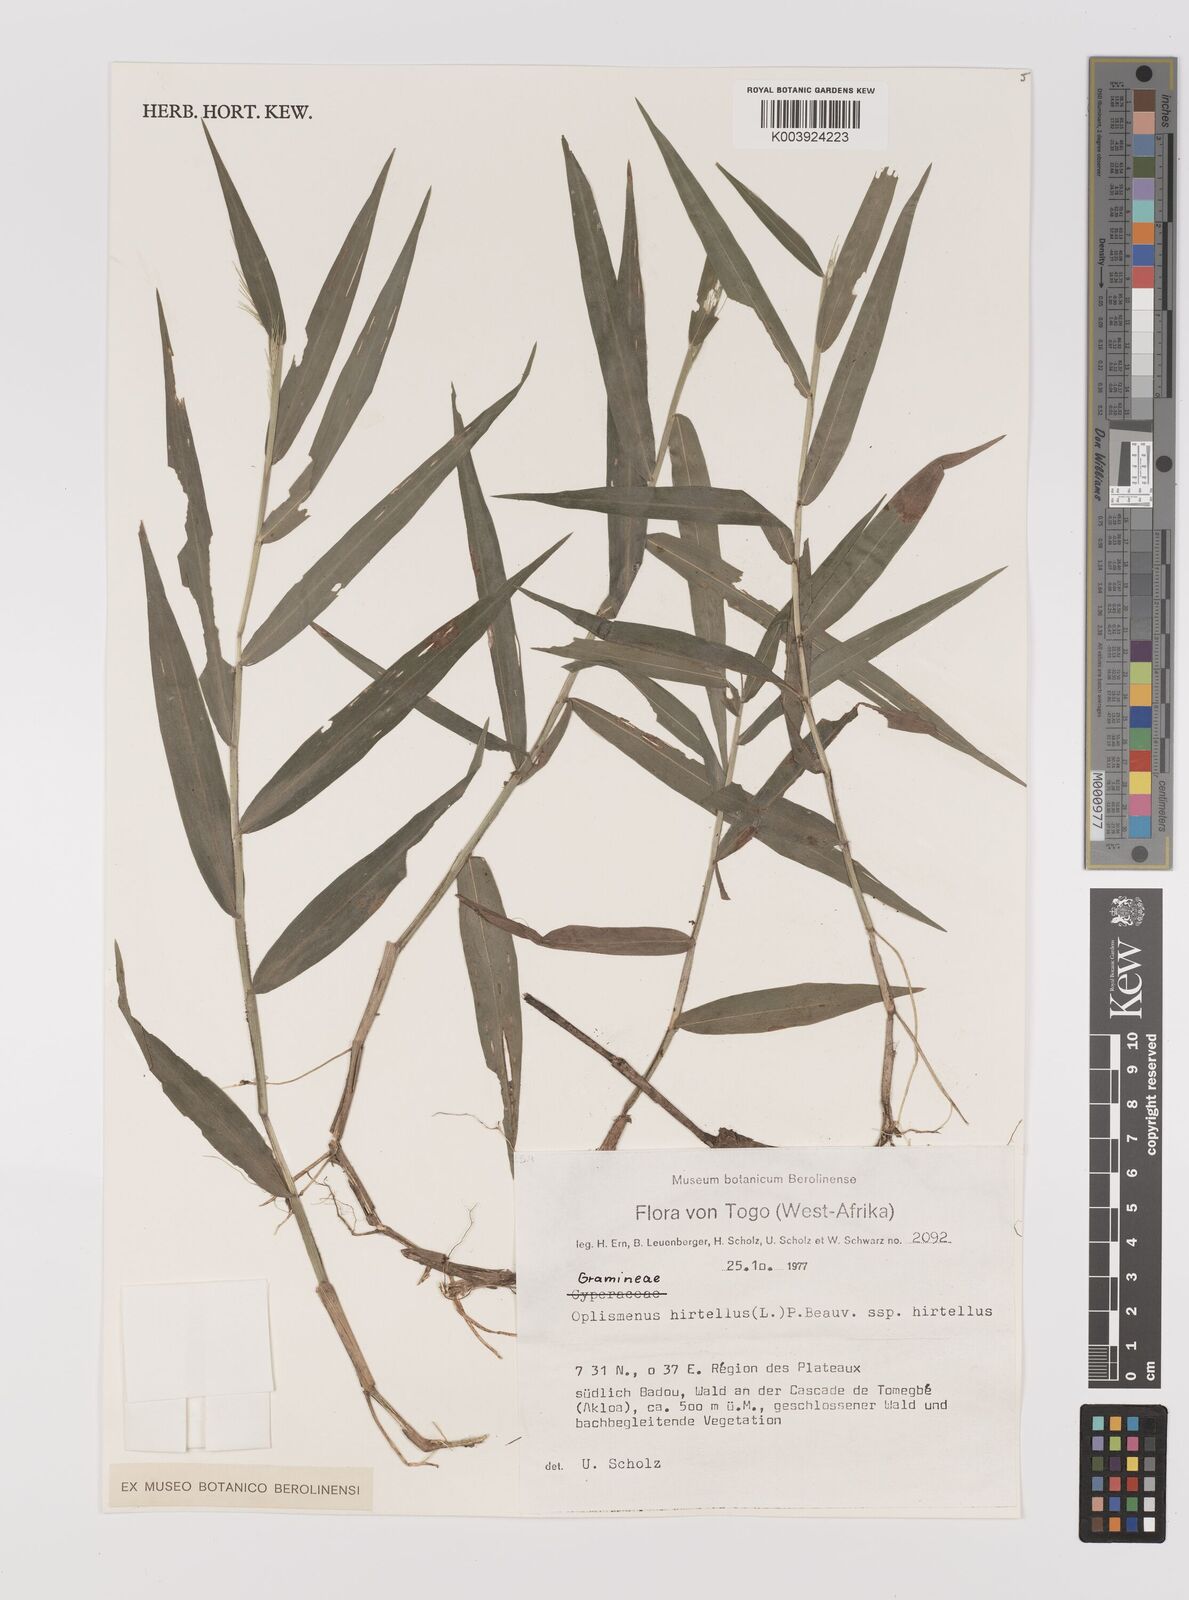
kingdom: Plantae
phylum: Tracheophyta
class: Liliopsida
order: Poales
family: Poaceae
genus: Oplismenus
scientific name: Oplismenus hirtellus
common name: Basketgrass
